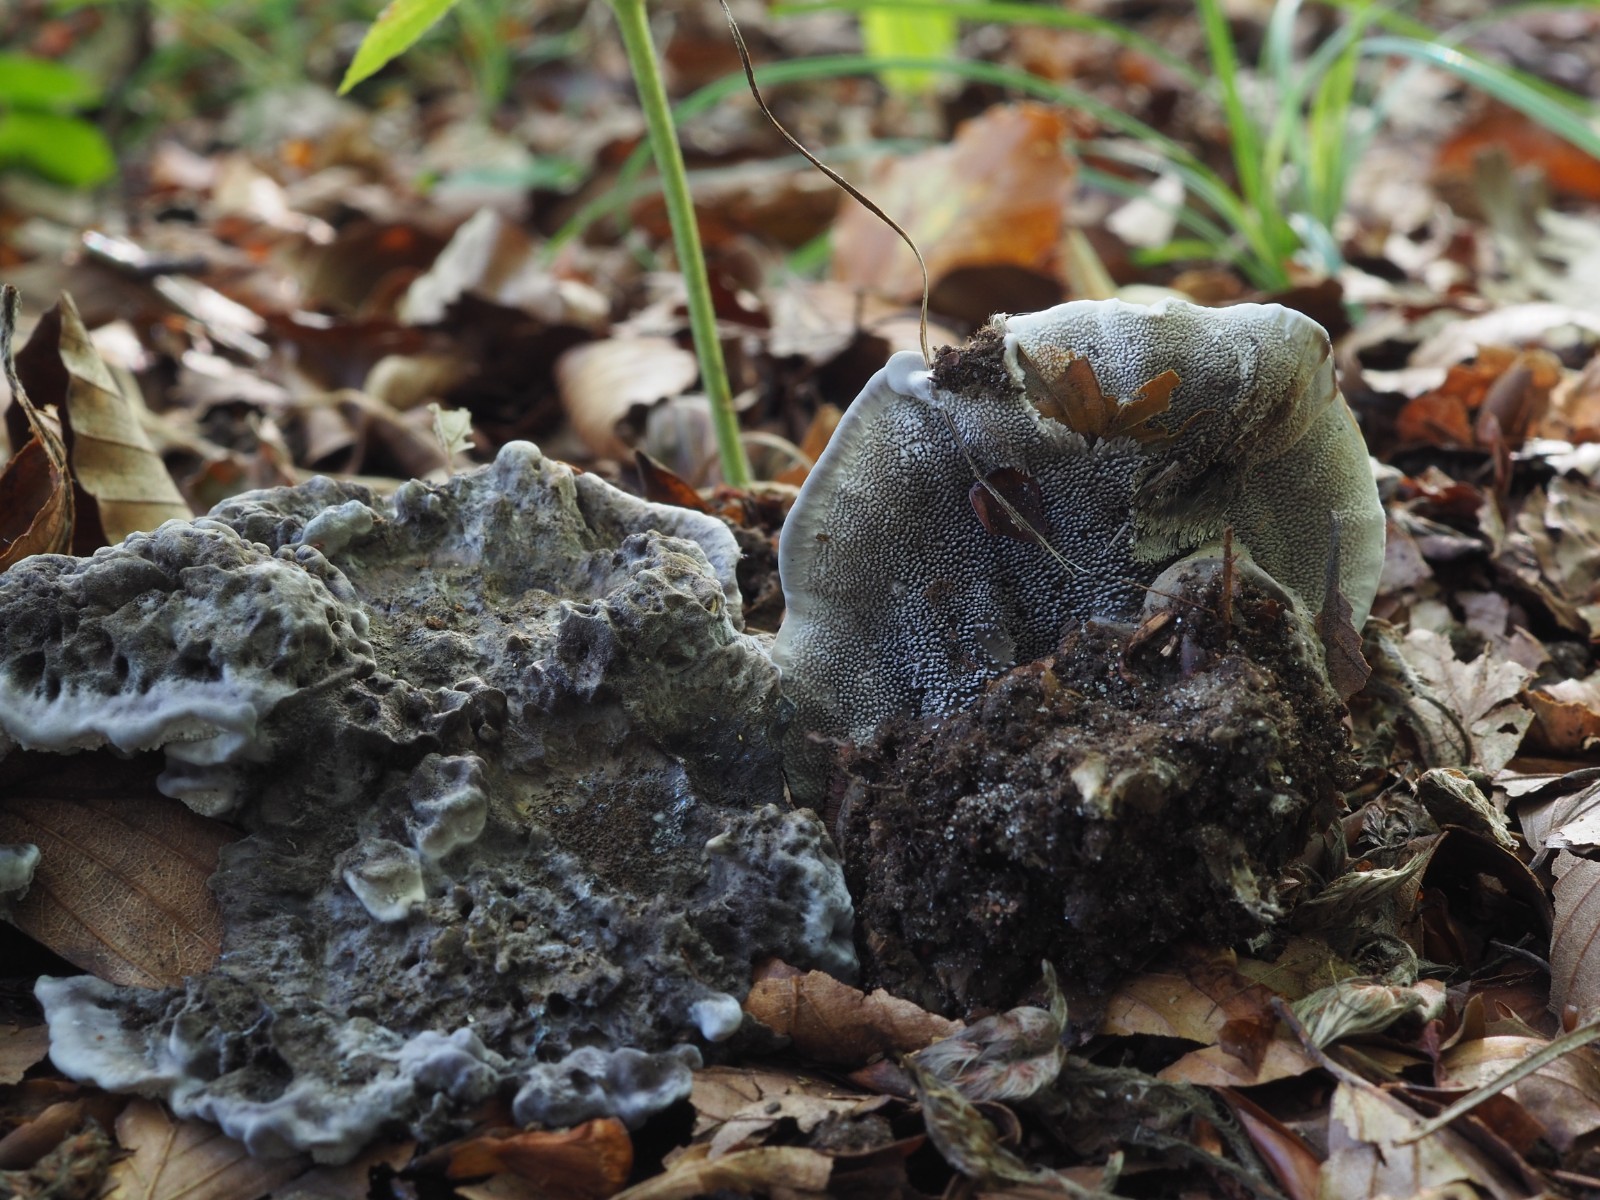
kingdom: Fungi
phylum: Basidiomycota
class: Agaricomycetes
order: Thelephorales
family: Thelephoraceae
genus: Phellodon
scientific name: Phellodon
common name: mørk duftpigsvamp
